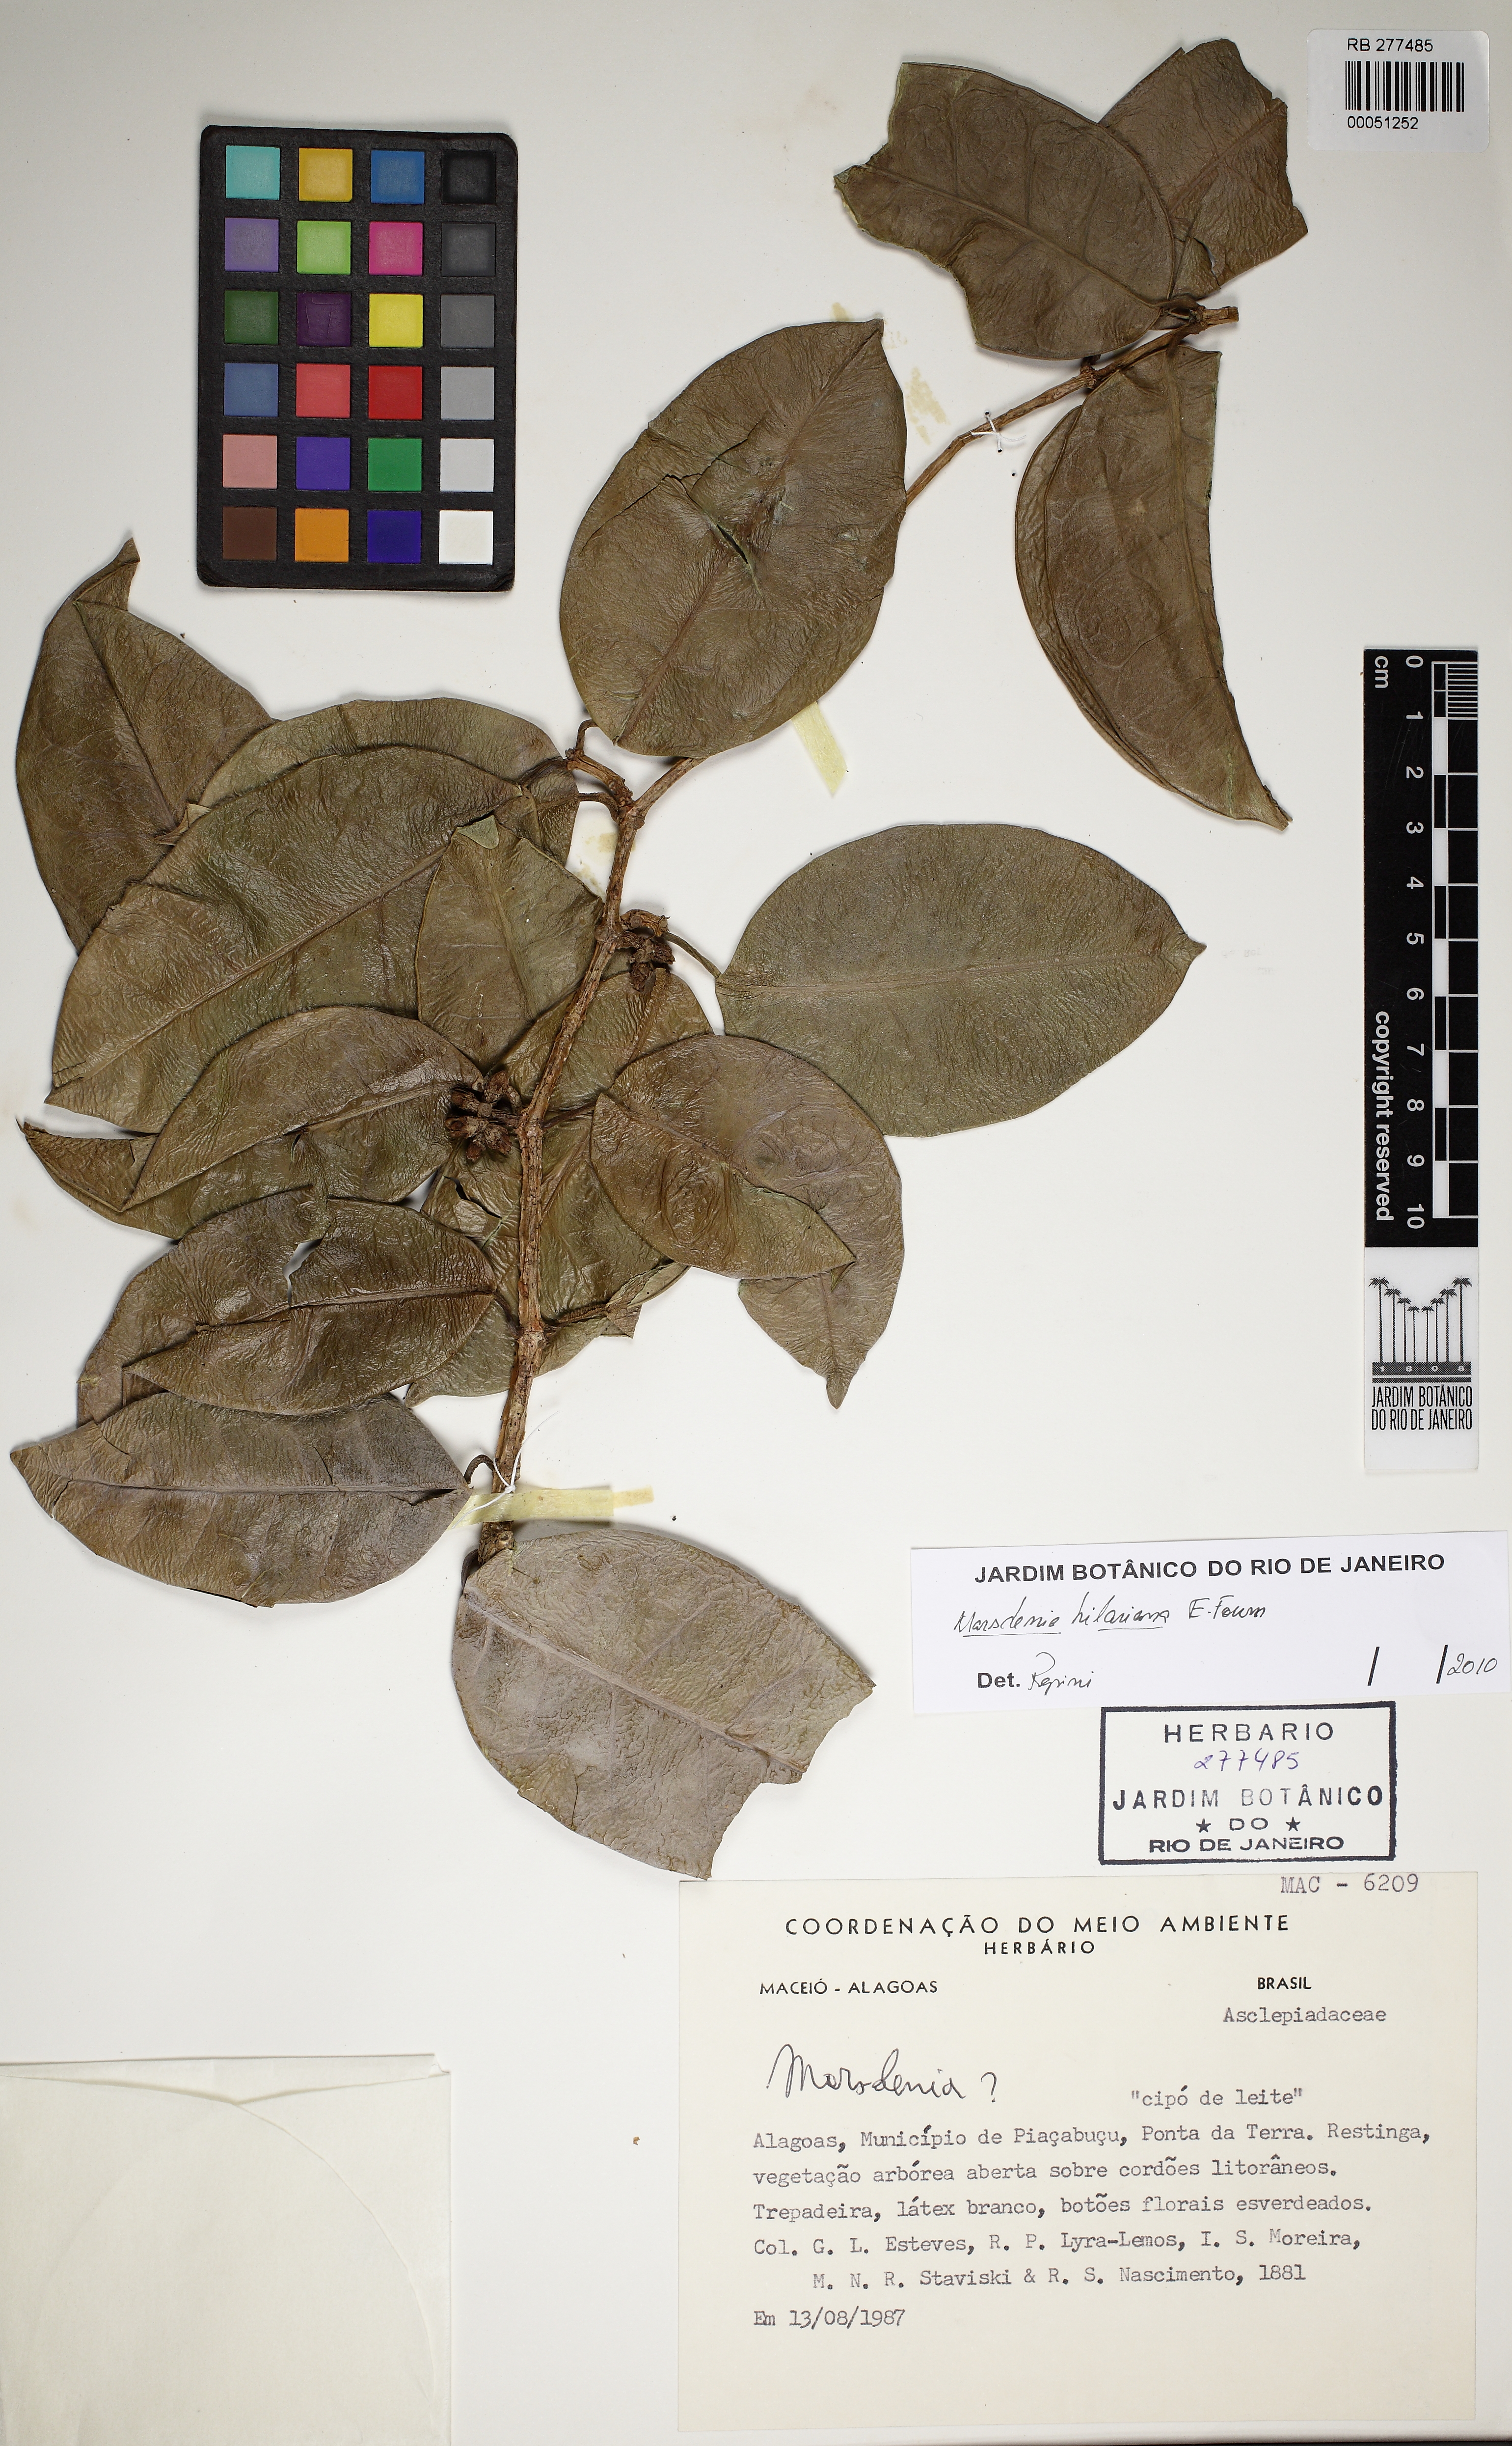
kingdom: Plantae
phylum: Tracheophyta
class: Magnoliopsida
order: Gentianales
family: Apocynaceae
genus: Ruehssia
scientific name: Ruehssia macieliana
